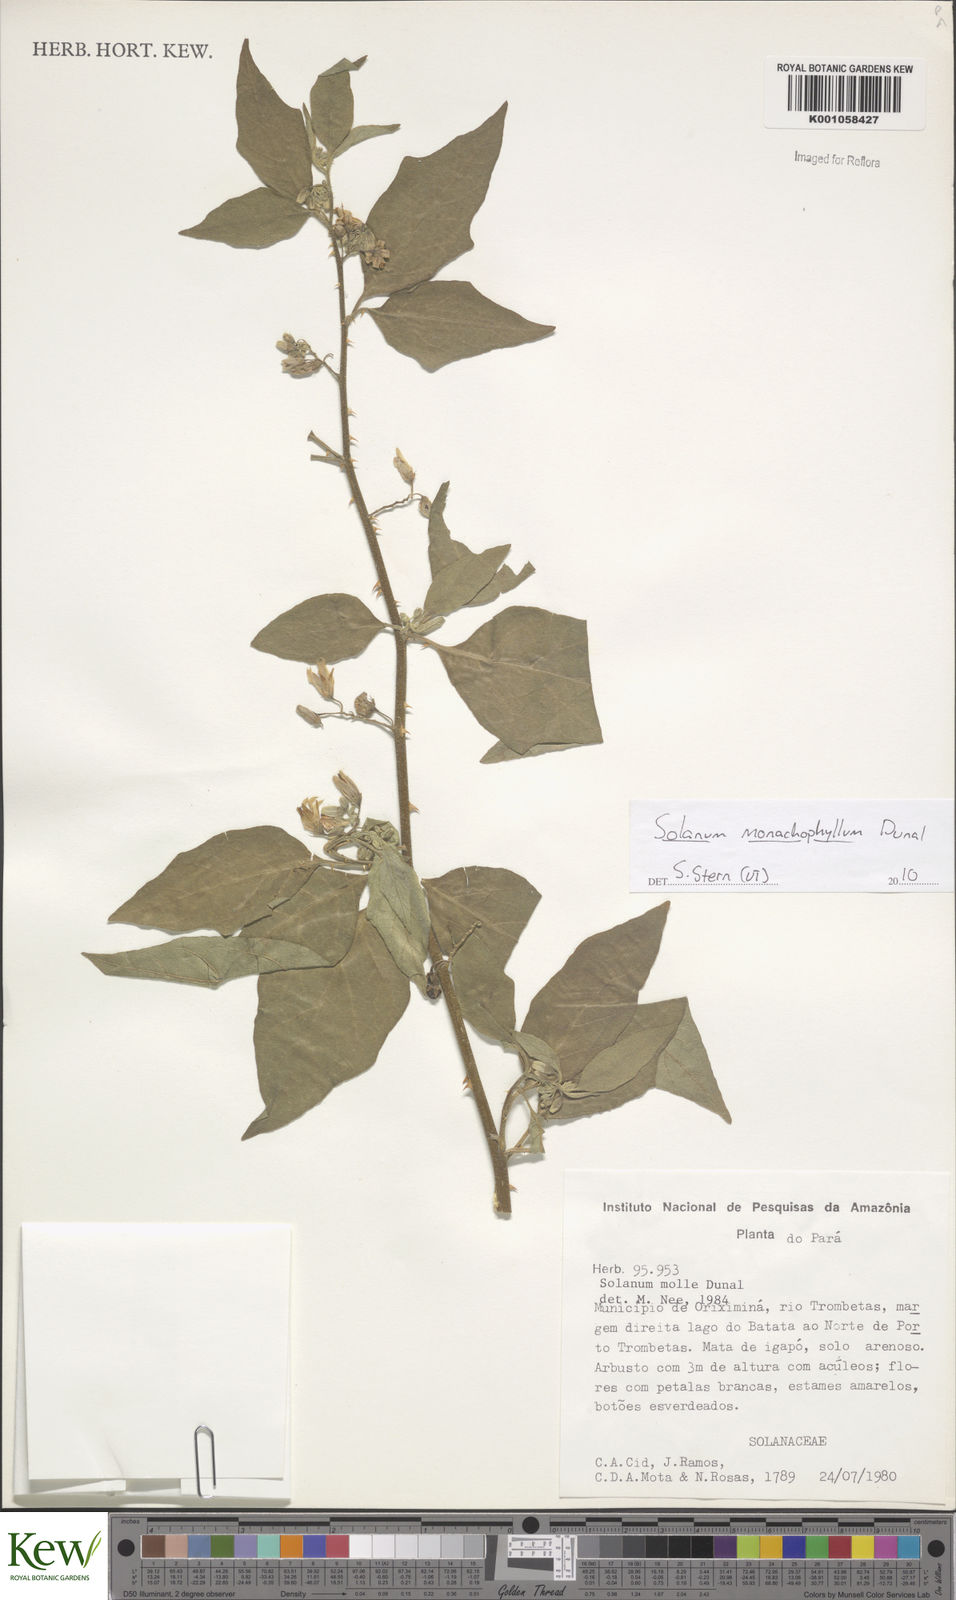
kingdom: Plantae
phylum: Tracheophyta
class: Magnoliopsida
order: Solanales
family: Solanaceae
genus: Solanum
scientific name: Solanum monachophyllum
